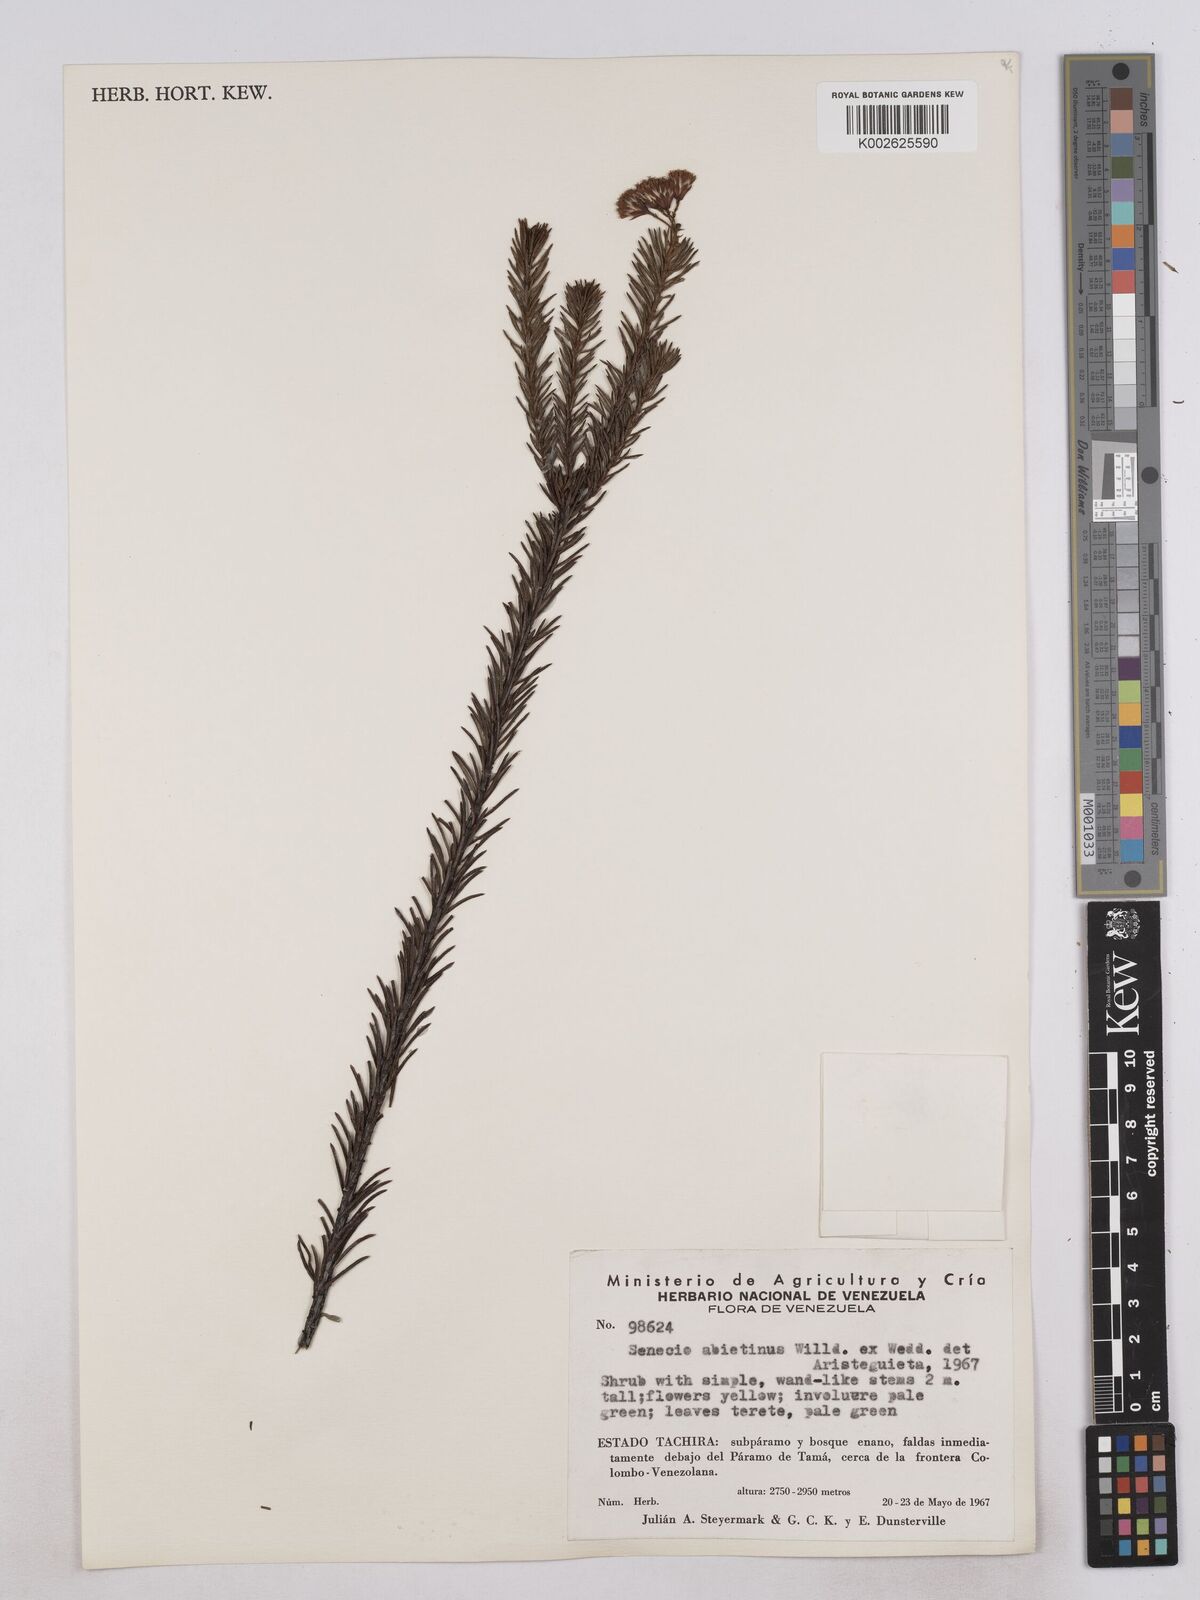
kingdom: Plantae
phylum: Tracheophyta
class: Magnoliopsida
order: Asterales
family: Asteraceae
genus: Monticalia
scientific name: Monticalia abietina
